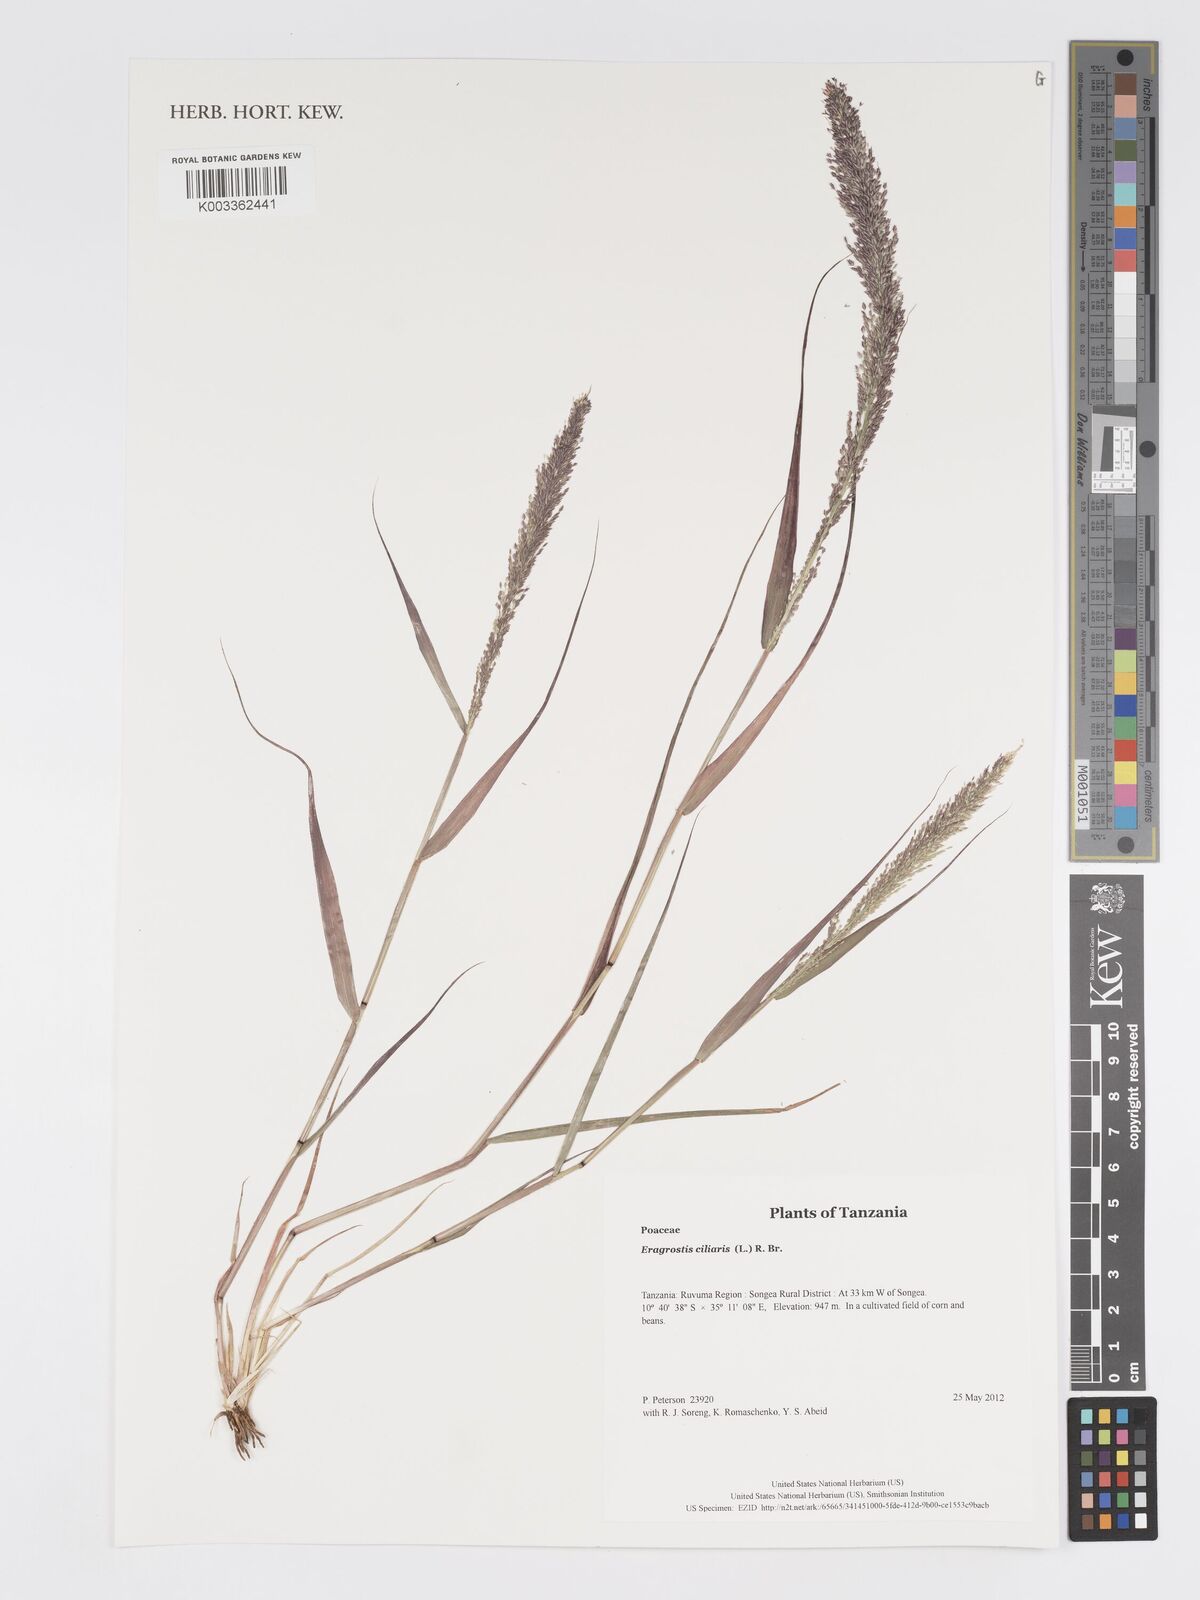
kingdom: Plantae
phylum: Tracheophyta
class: Liliopsida
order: Poales
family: Poaceae
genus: Eragrostis
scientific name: Eragrostis ciliaris
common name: Gophertail lovegrass
